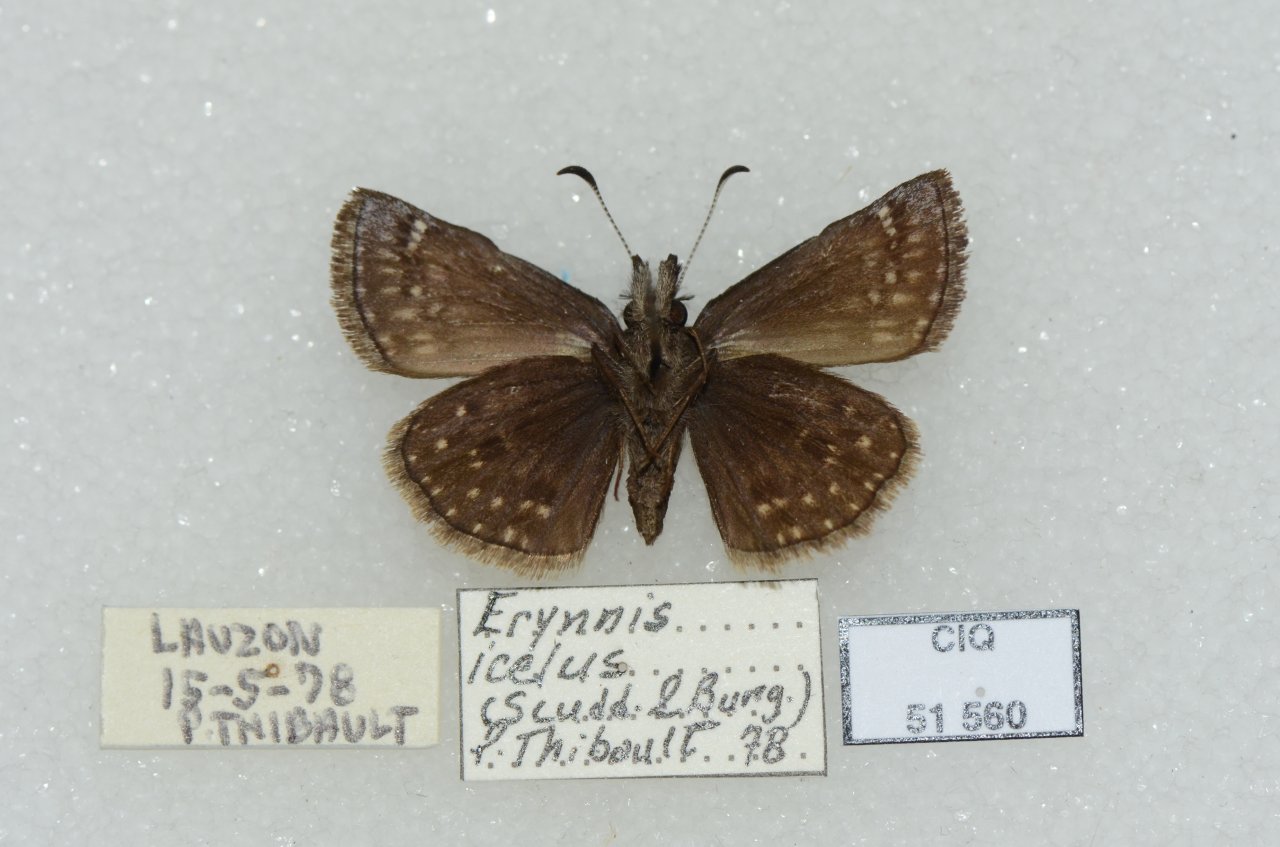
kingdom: Animalia
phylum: Arthropoda
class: Insecta
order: Lepidoptera
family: Hesperiidae
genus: Erynnis
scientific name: Erynnis icelus
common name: Dreamy Duskywing
